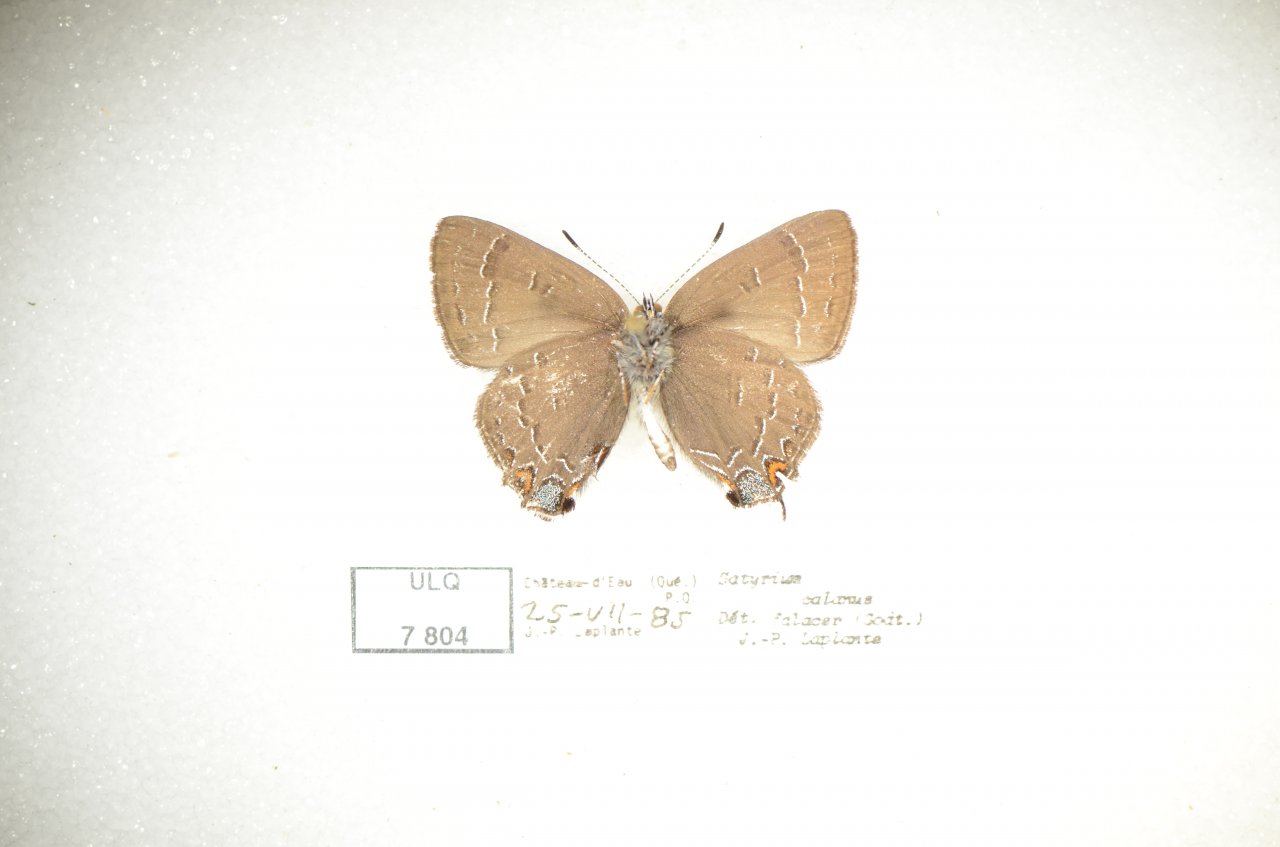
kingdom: Animalia
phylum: Arthropoda
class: Insecta
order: Lepidoptera
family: Lycaenidae
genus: Satyrium
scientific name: Satyrium calanus
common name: Banded Hairstreak
